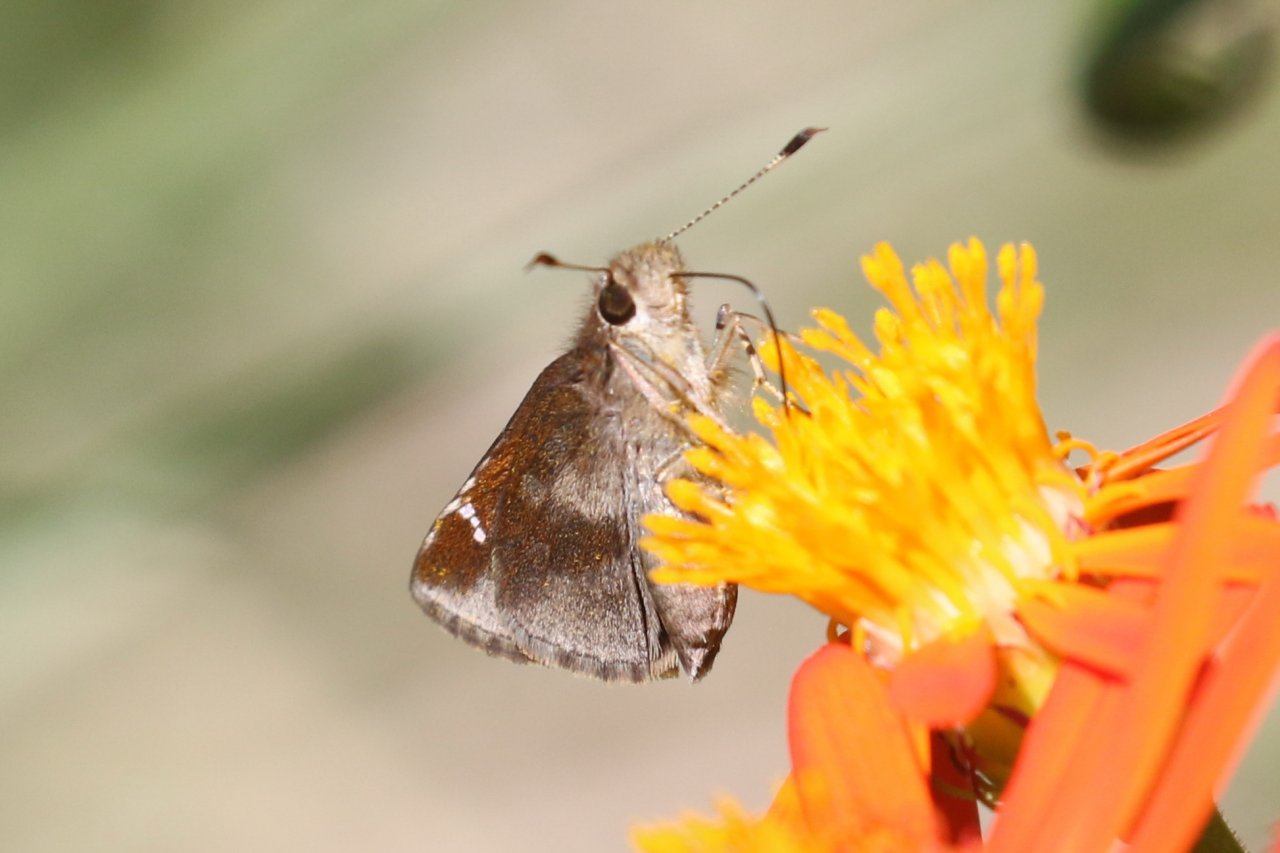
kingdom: Animalia
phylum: Arthropoda
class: Insecta
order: Lepidoptera
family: Hesperiidae
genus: Lerema
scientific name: Lerema accius
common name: Clouded Skipper
